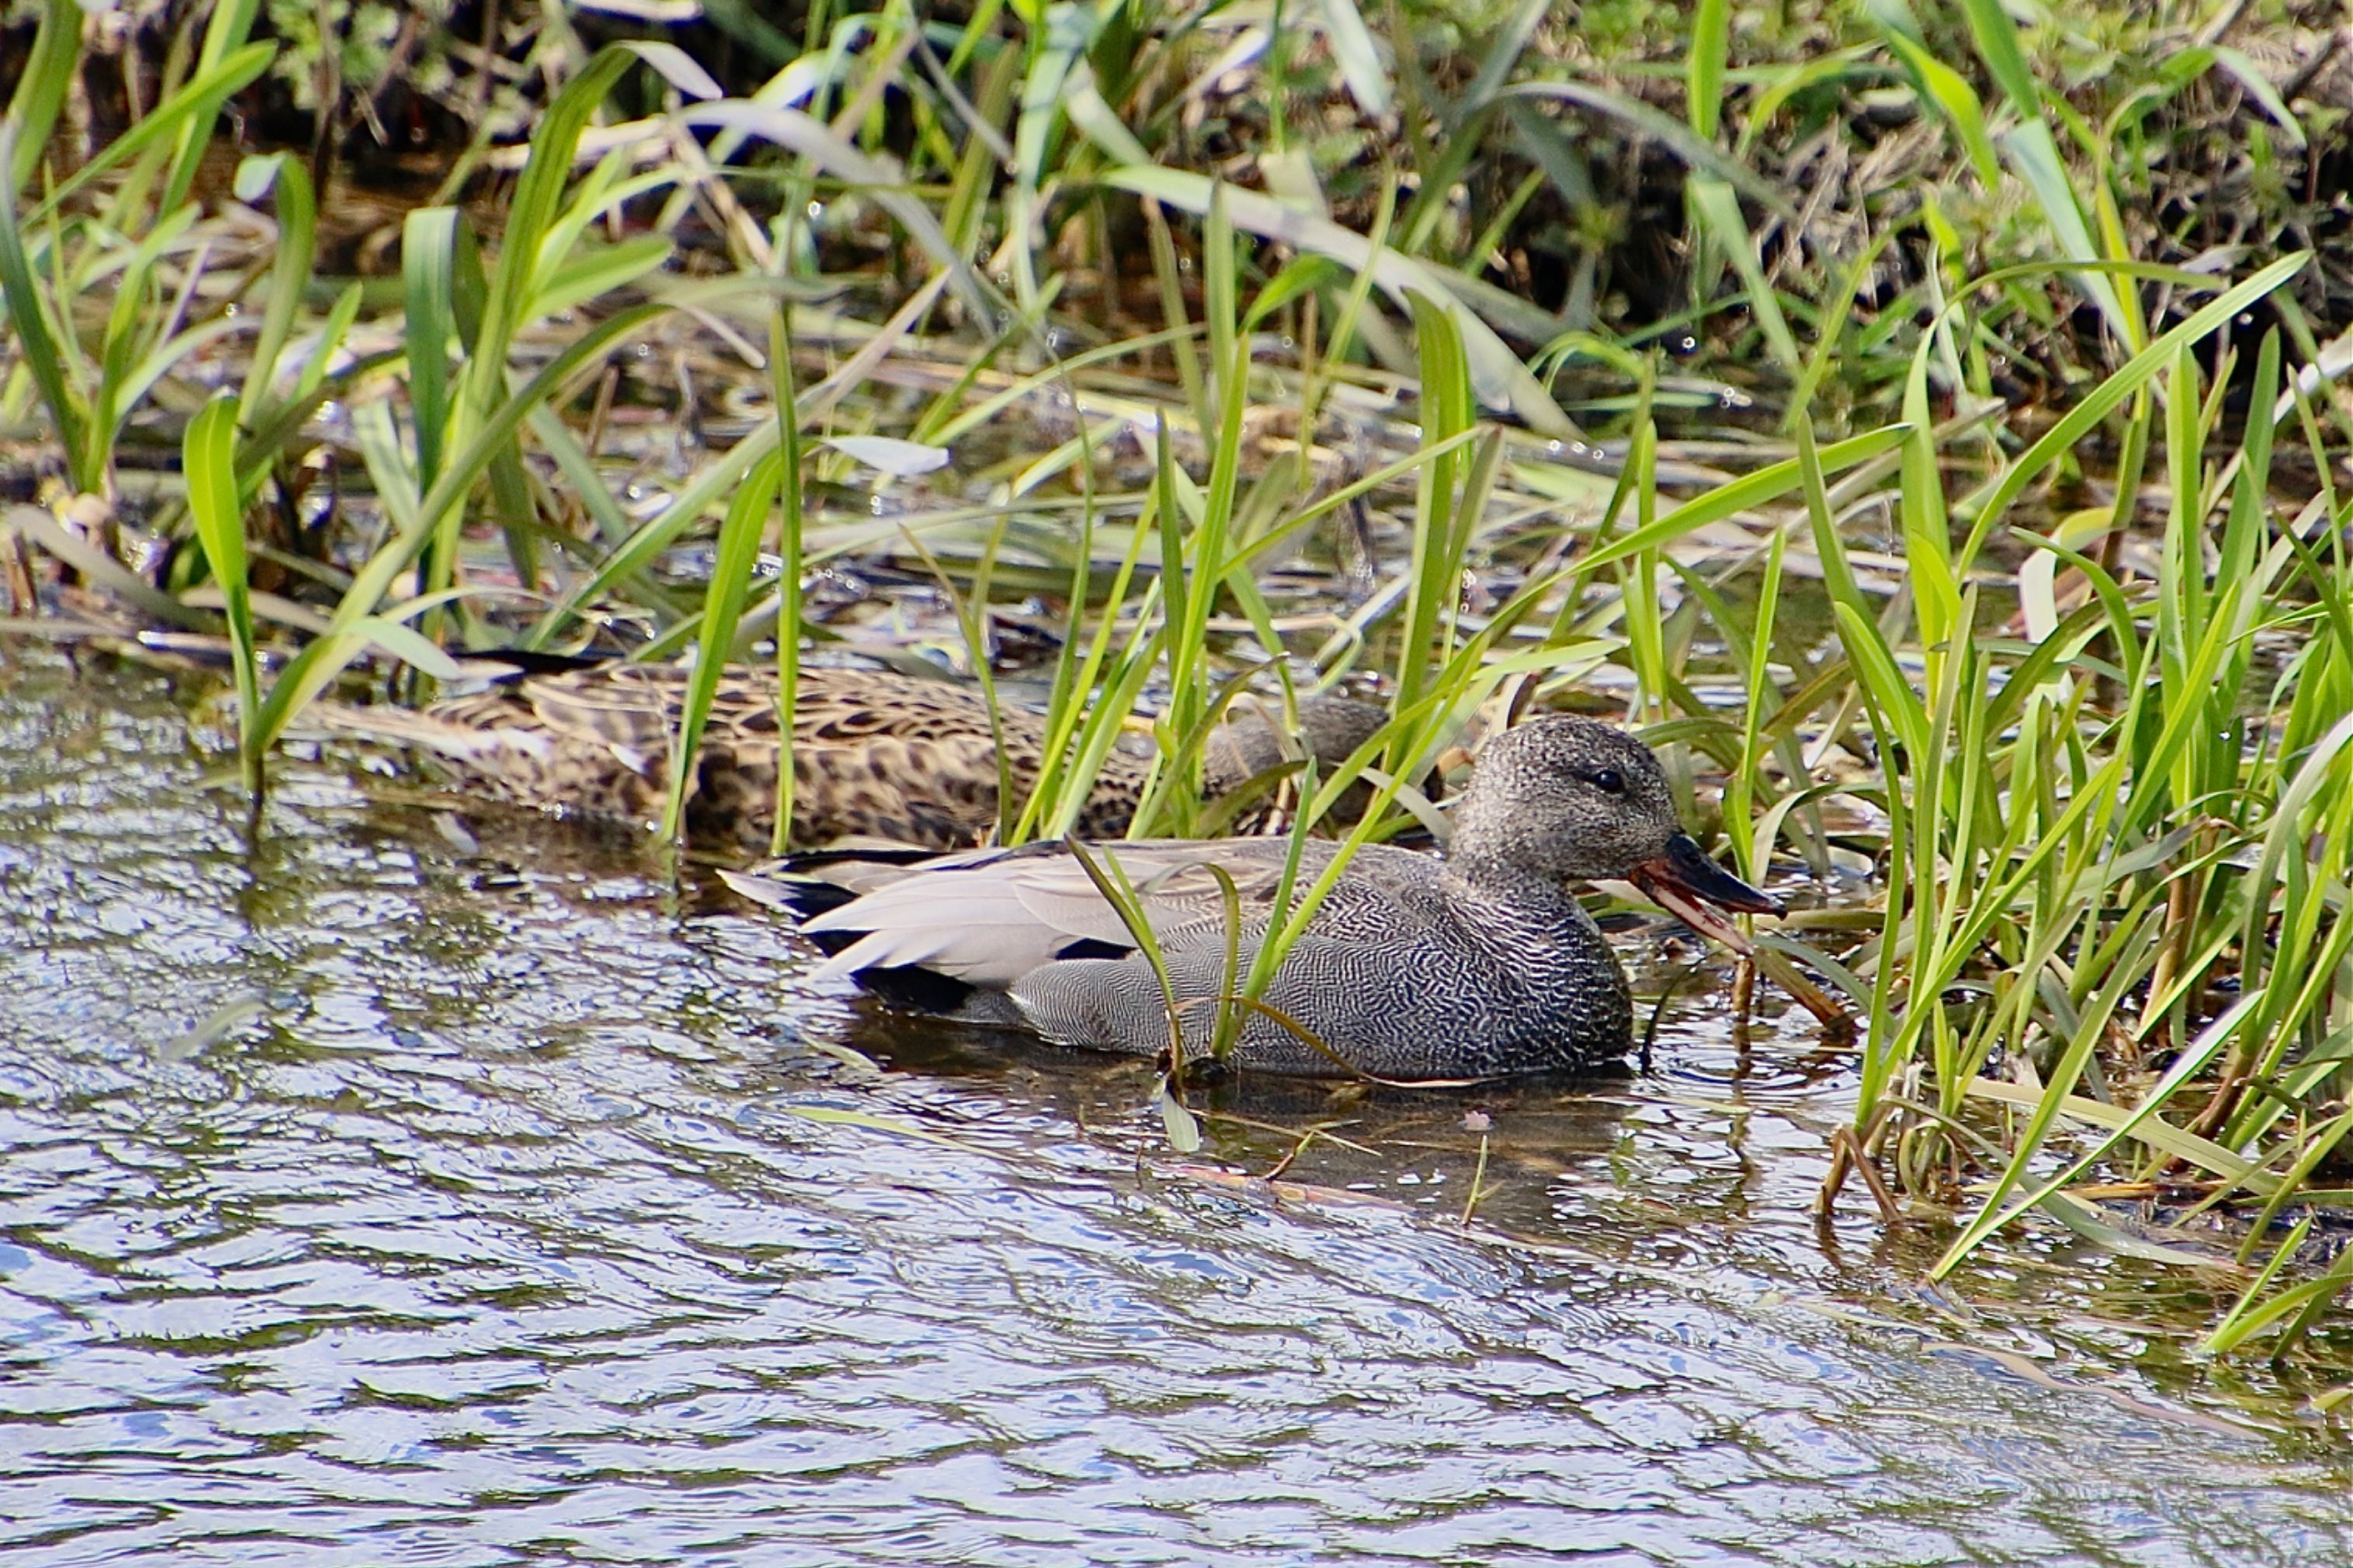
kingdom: Animalia
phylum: Chordata
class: Aves
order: Anseriformes
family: Anatidae
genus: Mareca
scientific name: Mareca strepera
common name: Knarand
